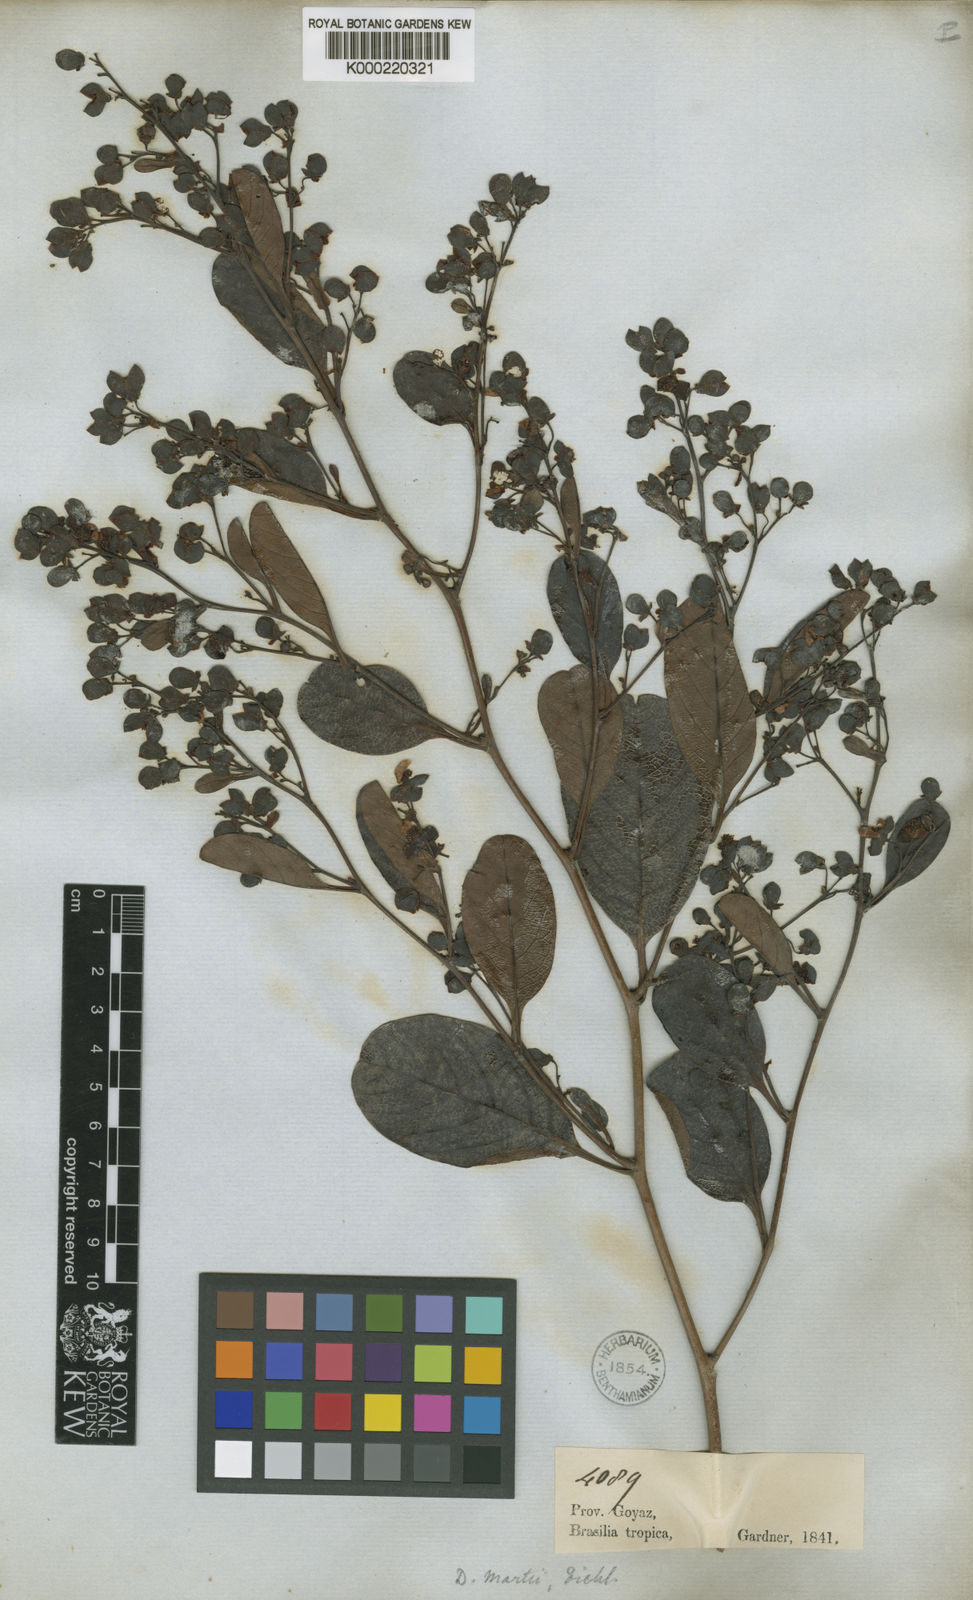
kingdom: Plantae
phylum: Tracheophyta
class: Magnoliopsida
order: Dilleniales
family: Dilleniaceae
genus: Davilla
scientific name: Davilla grandiflora
